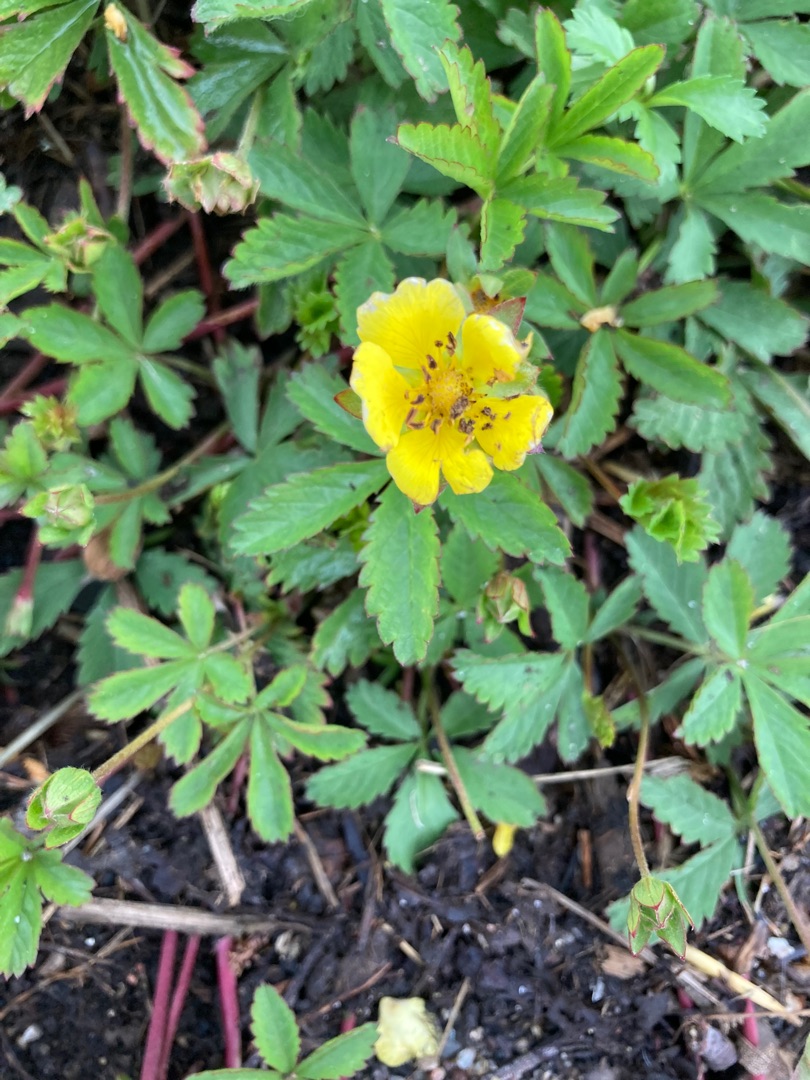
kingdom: Plantae
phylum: Tracheophyta
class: Magnoliopsida
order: Rosales
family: Rosaceae
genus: Potentilla
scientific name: Potentilla reptans
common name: Krybende potentil
